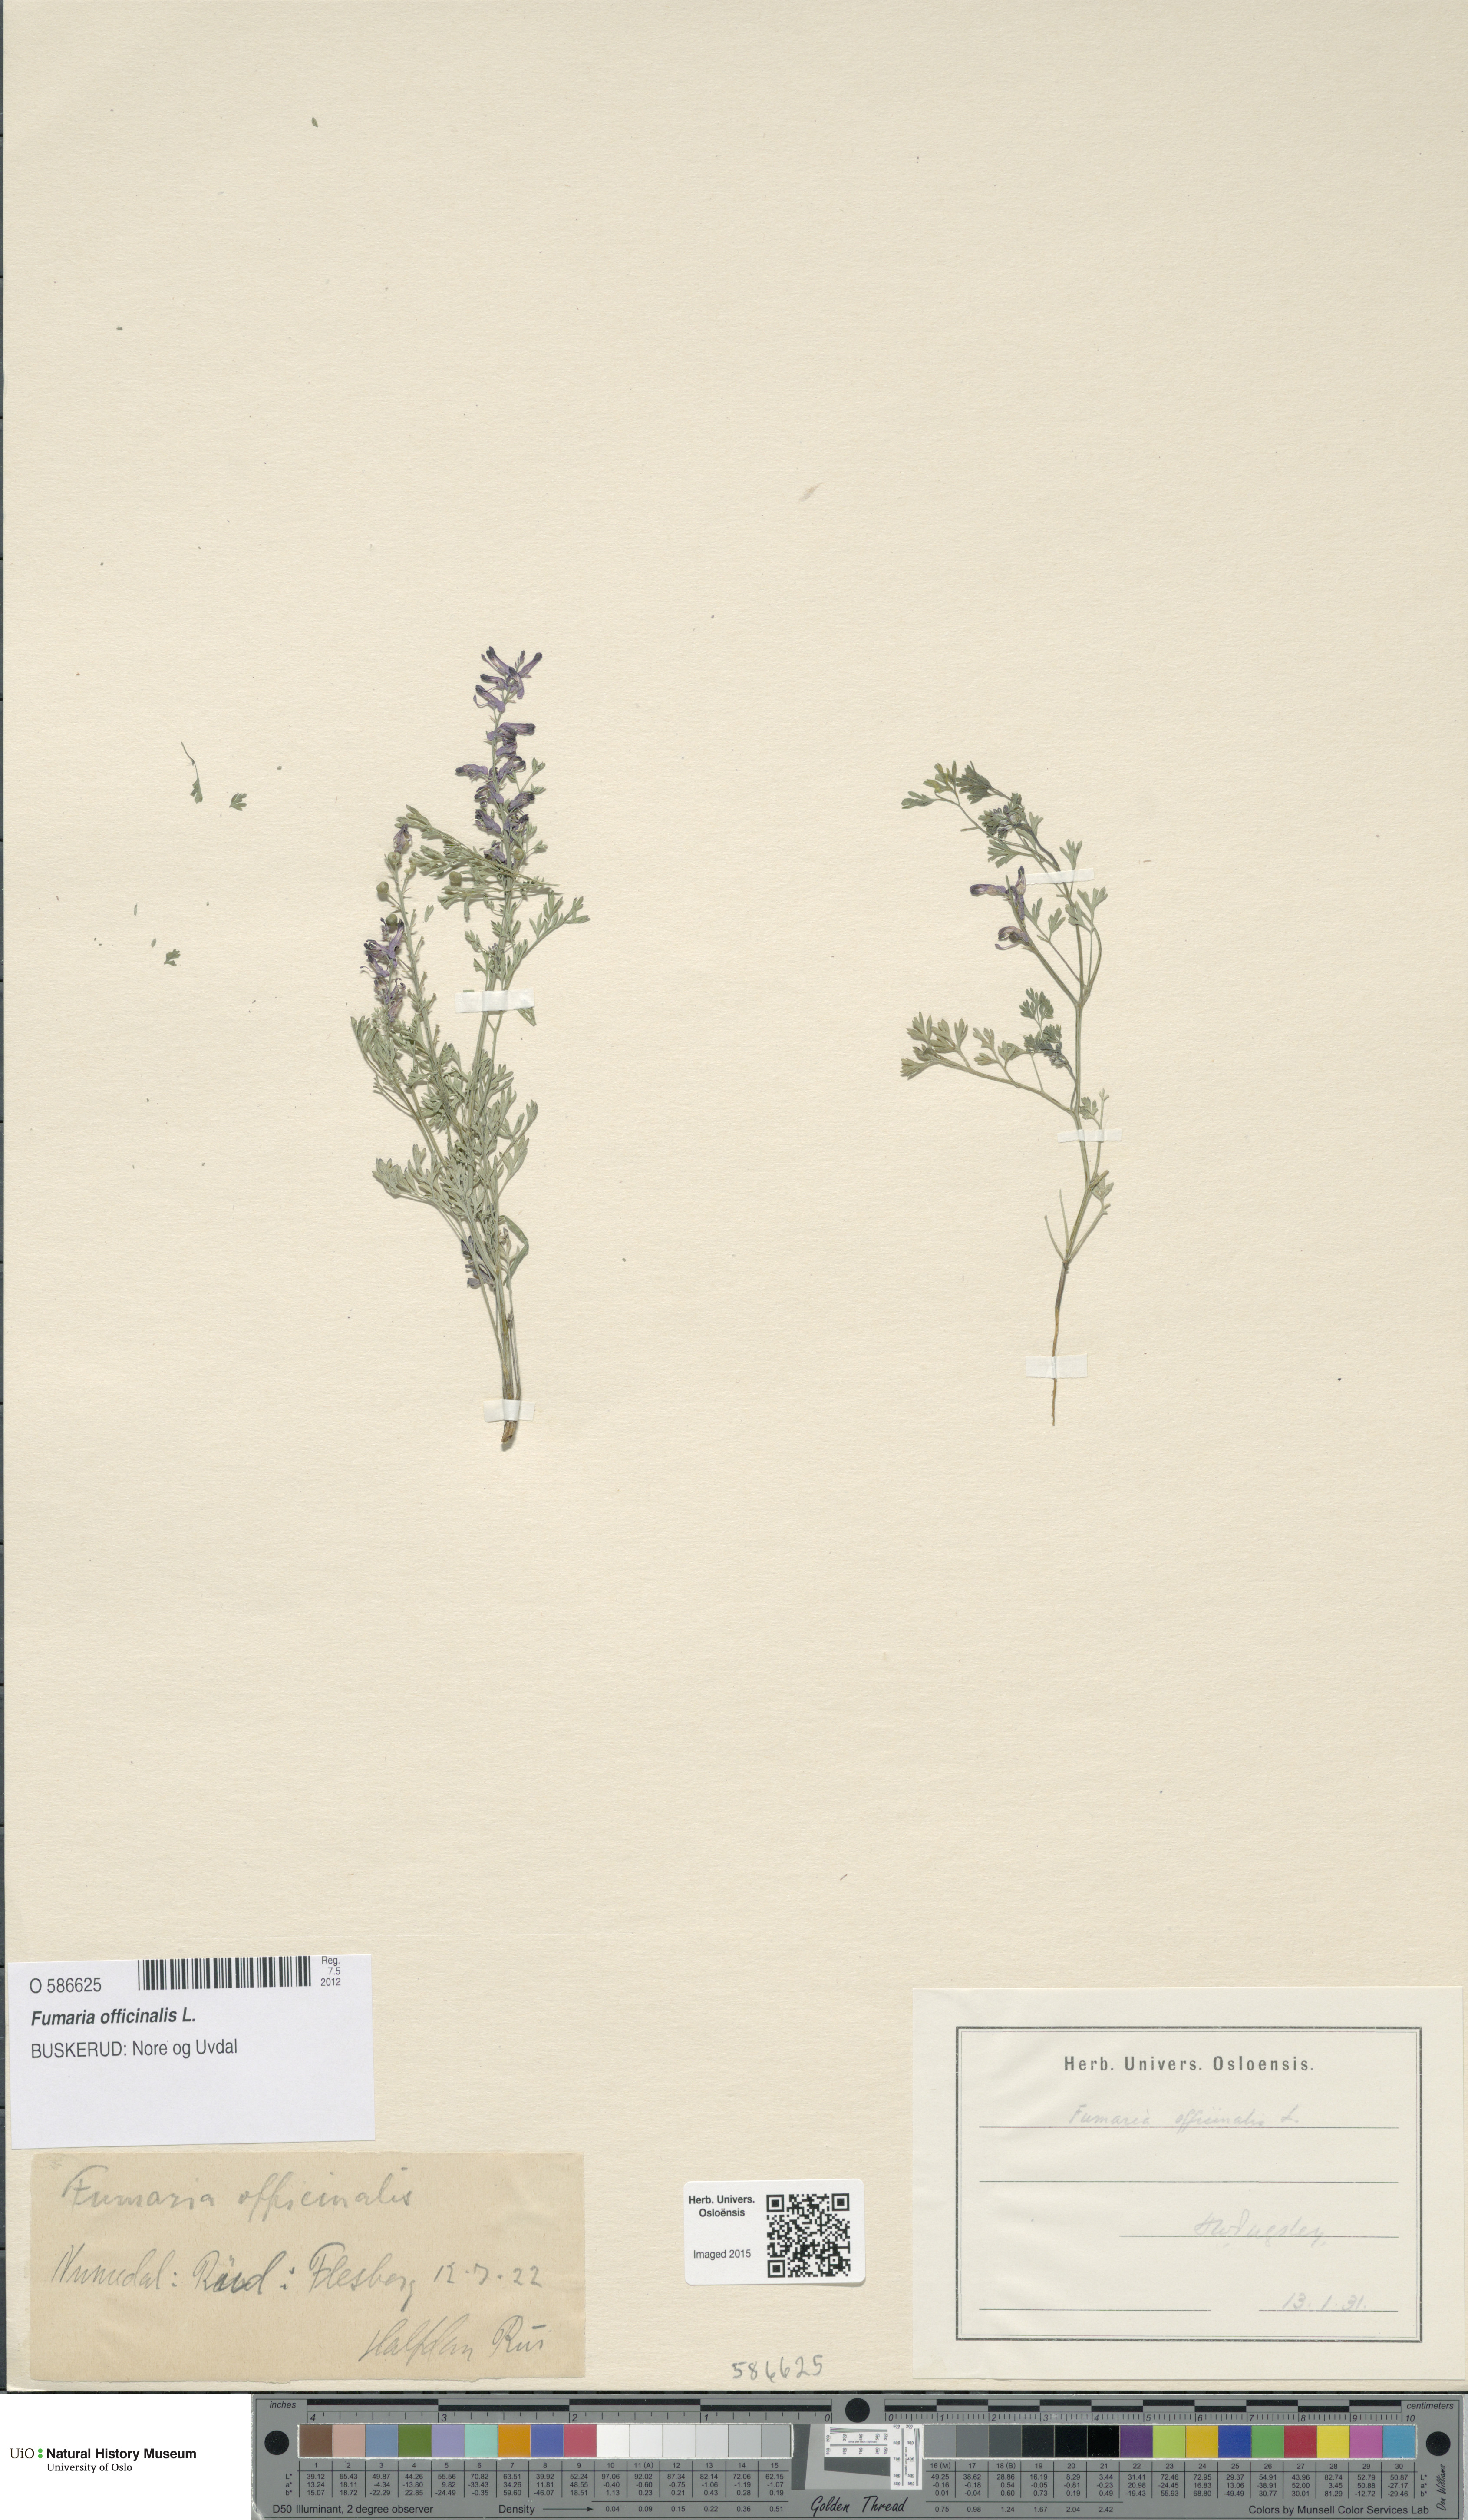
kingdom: Plantae
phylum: Tracheophyta
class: Magnoliopsida
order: Ranunculales
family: Papaveraceae
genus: Fumaria
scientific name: Fumaria officinalis
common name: Common fumitory
